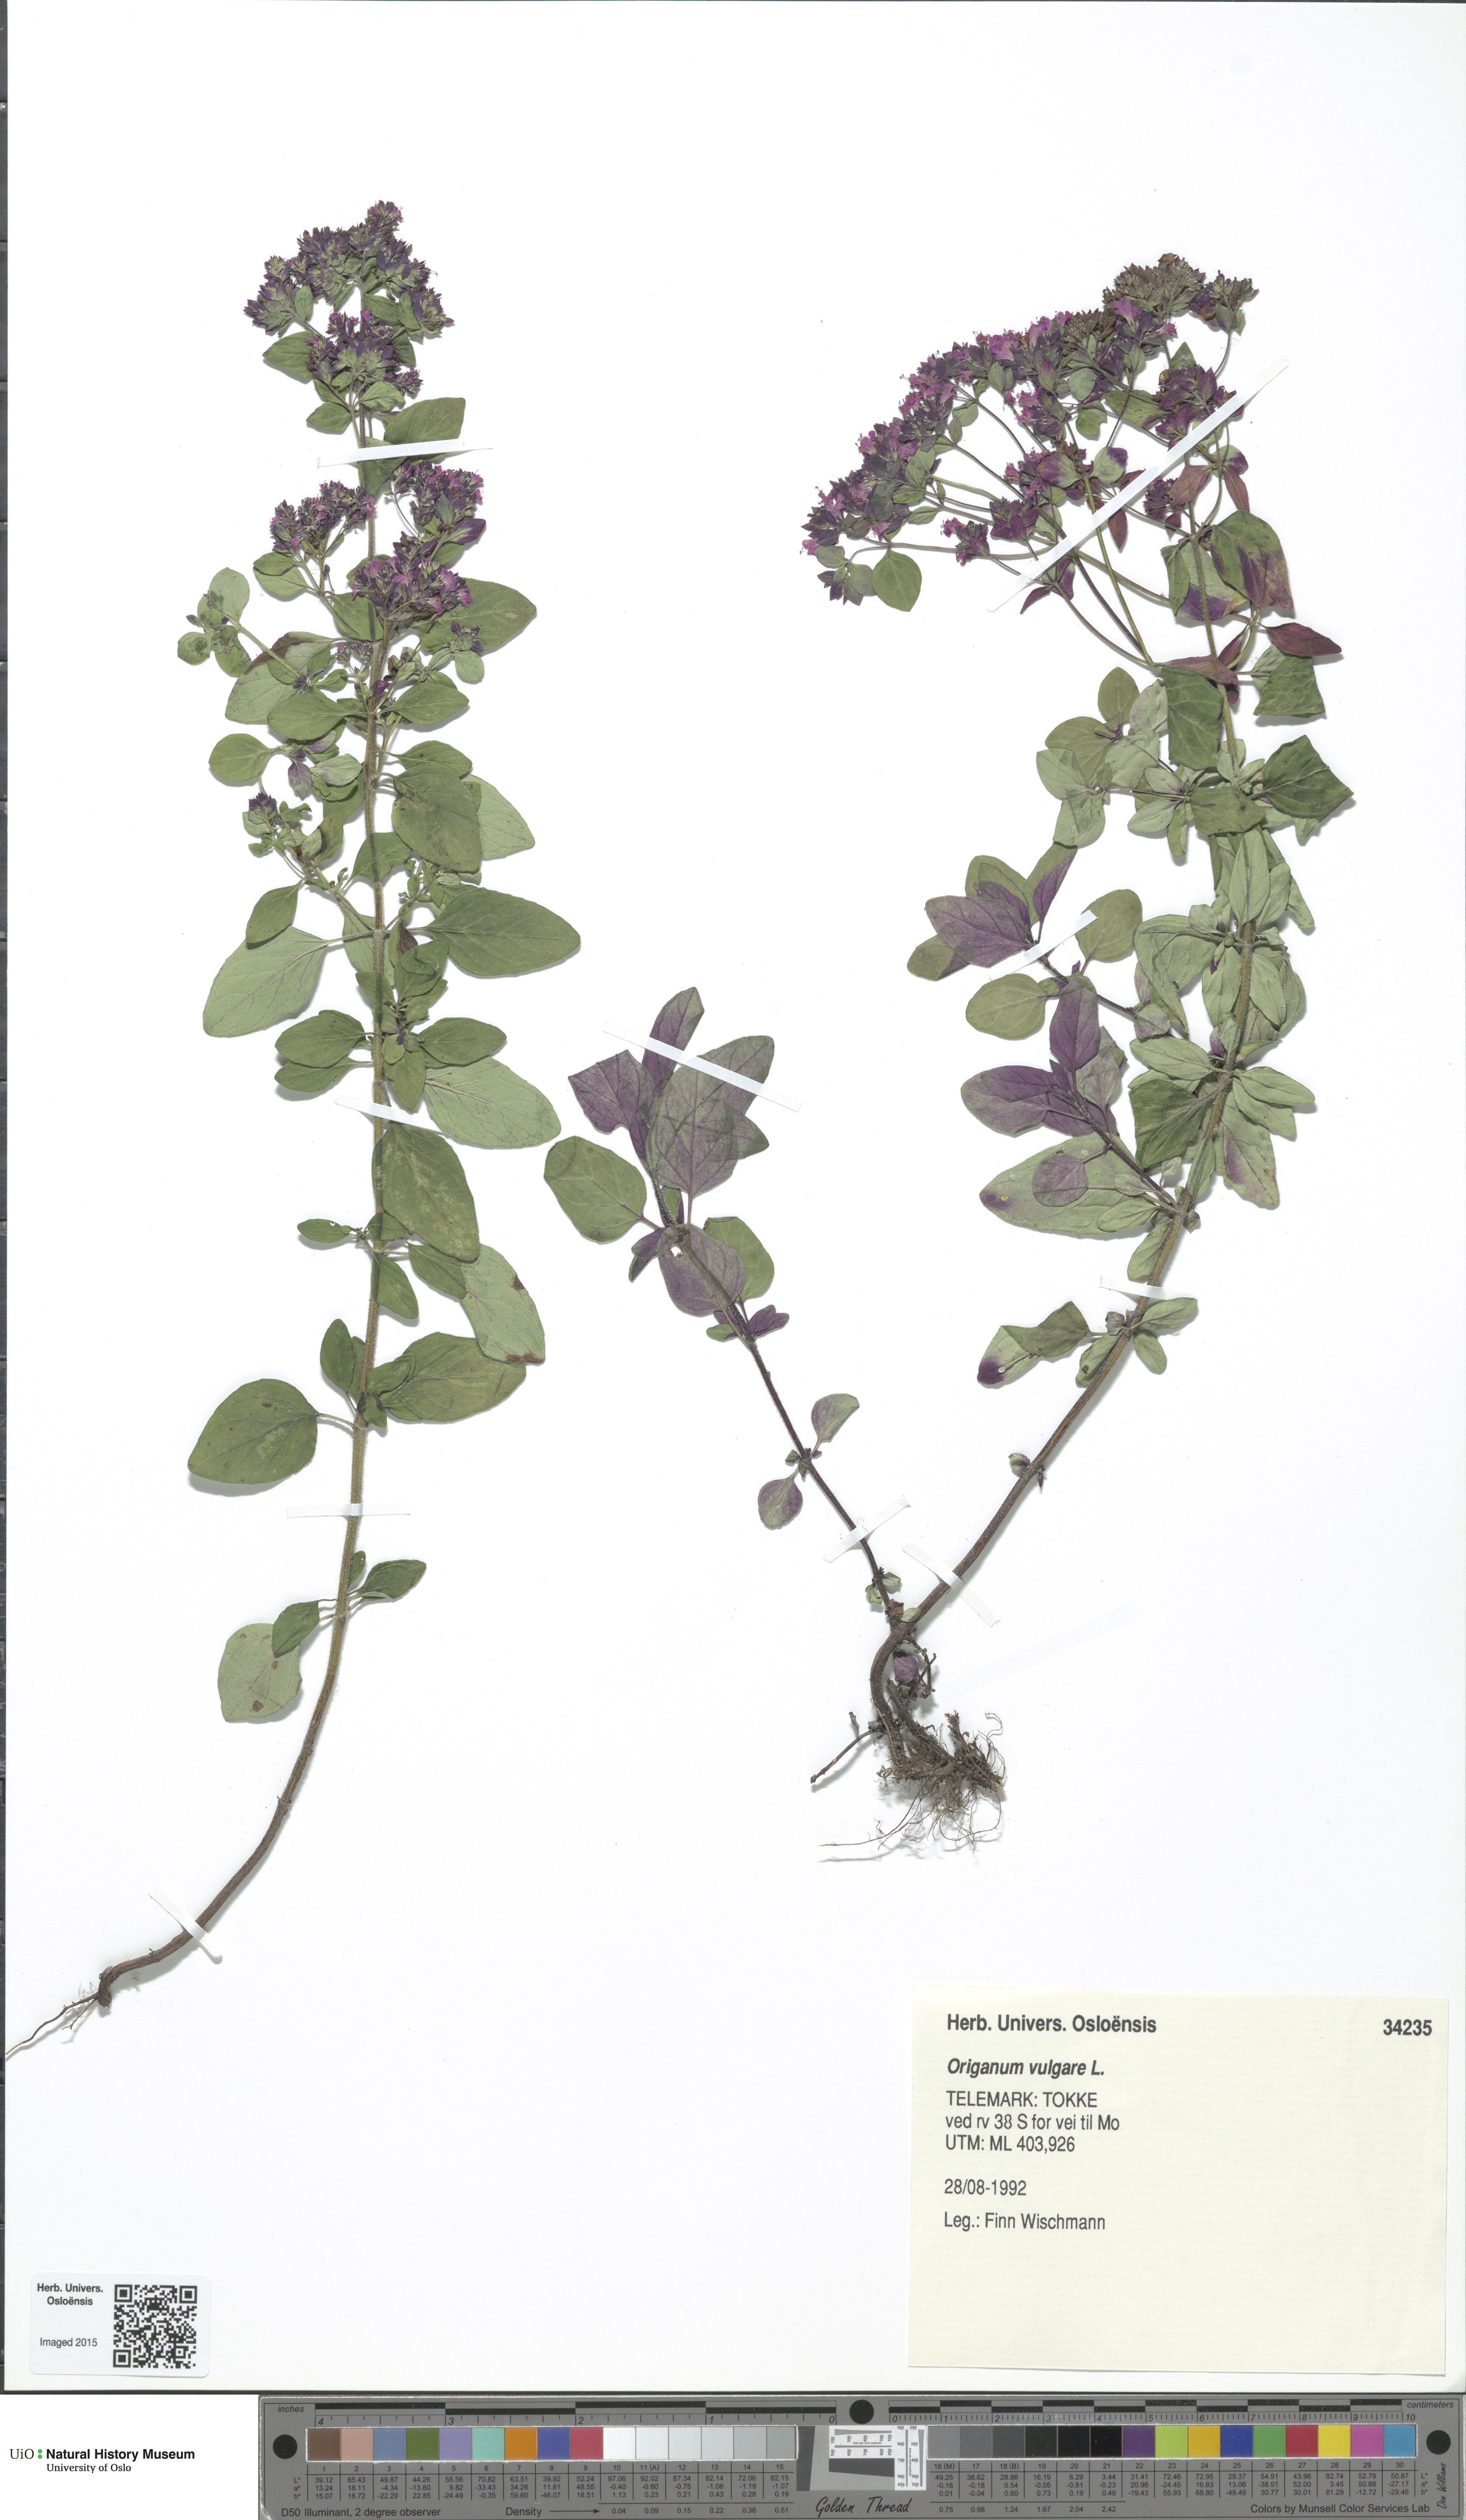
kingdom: Plantae
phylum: Tracheophyta
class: Magnoliopsida
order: Lamiales
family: Lamiaceae
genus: Origanum
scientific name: Origanum vulgare
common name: Wild marjoram
